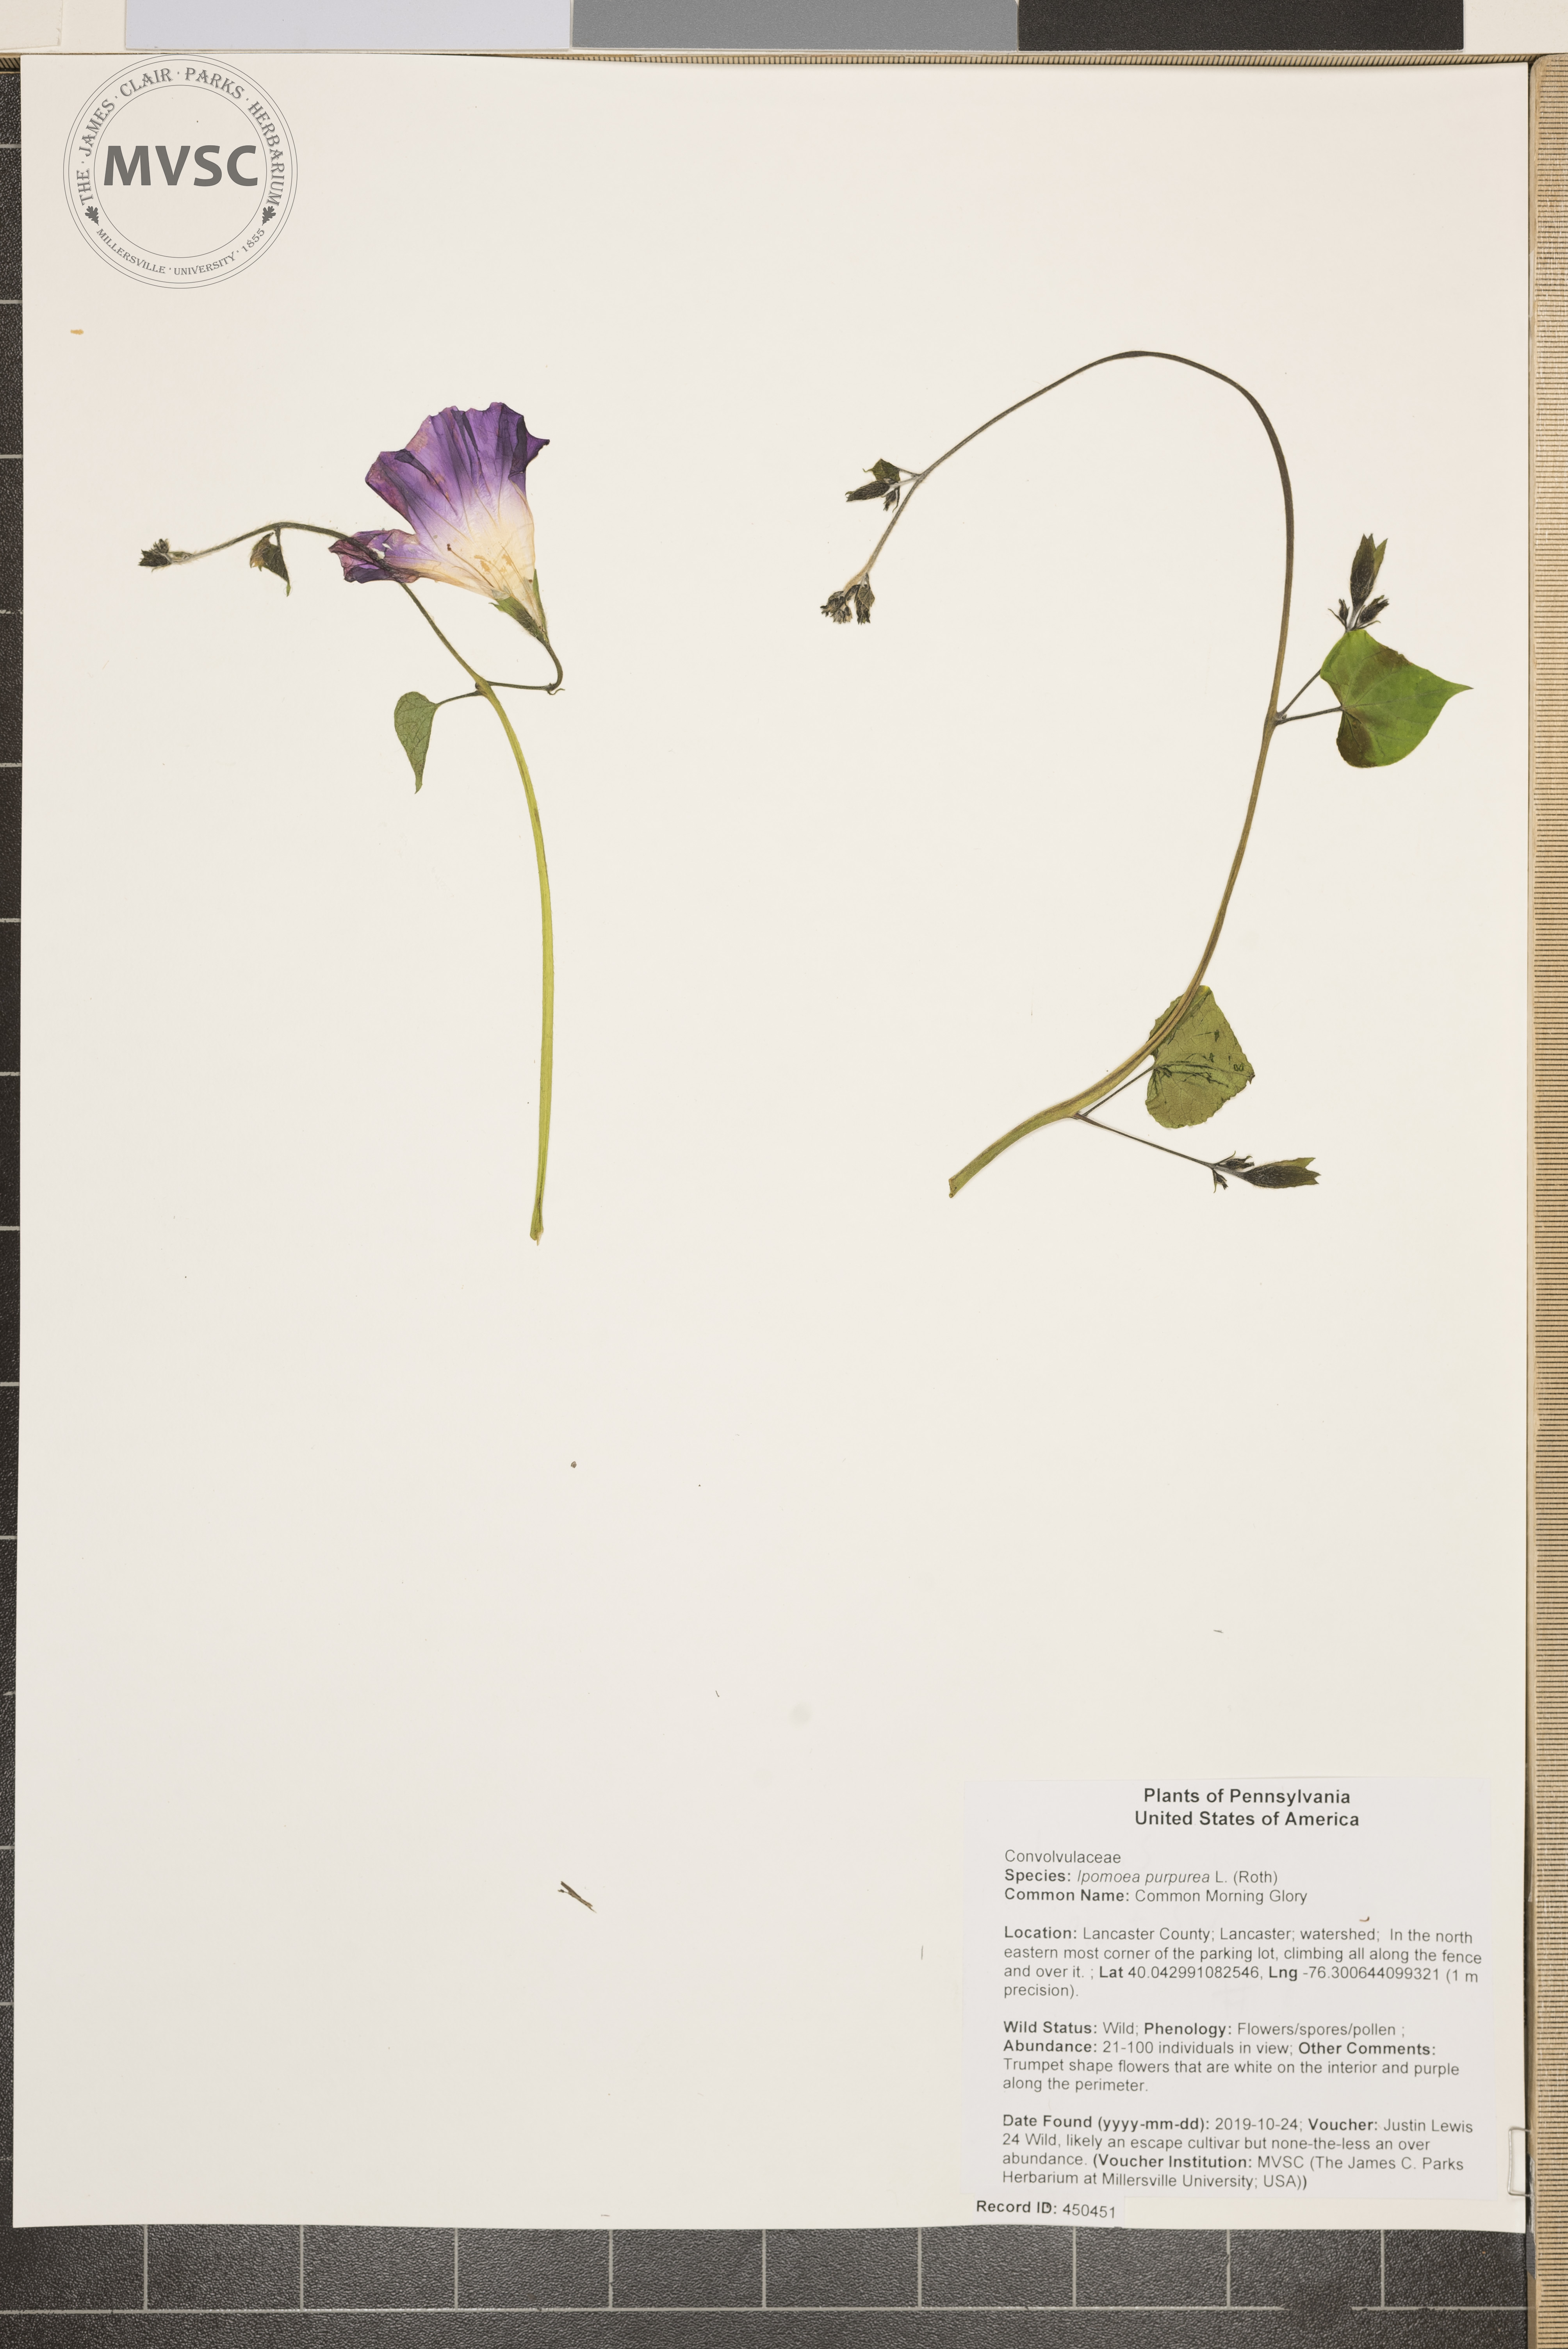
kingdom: Plantae
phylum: Tracheophyta
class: Magnoliopsida
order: Solanales
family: Convolvulaceae
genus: Ipomoea
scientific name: Ipomoea purpurea
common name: Common Morning Glory
